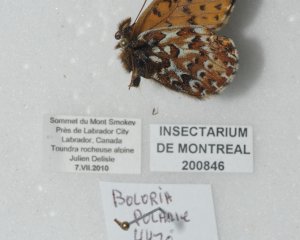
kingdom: Animalia
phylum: Arthropoda
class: Insecta
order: Lepidoptera
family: Nymphalidae
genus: Clossiana
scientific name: Clossiana polaris
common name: Polaris Fritillary
